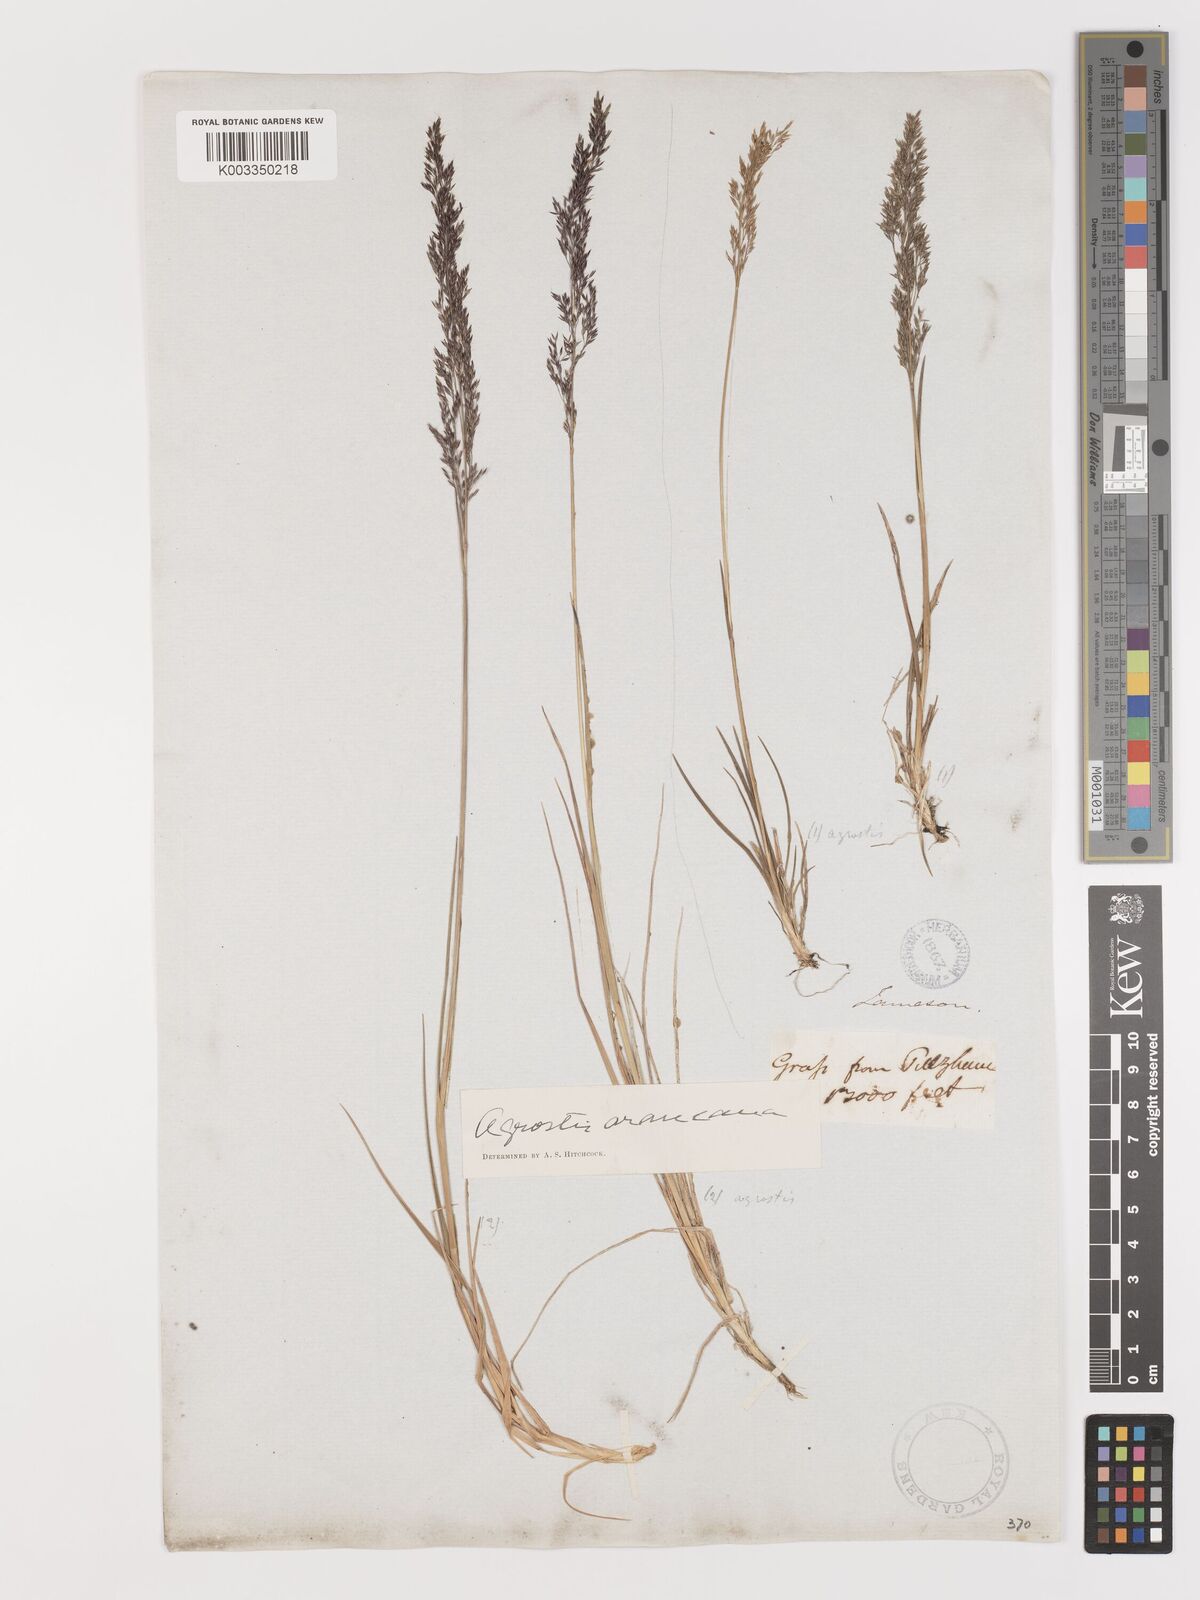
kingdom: Plantae
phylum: Tracheophyta
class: Liliopsida
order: Poales
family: Poaceae
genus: Agrostis
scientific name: Agrostis
